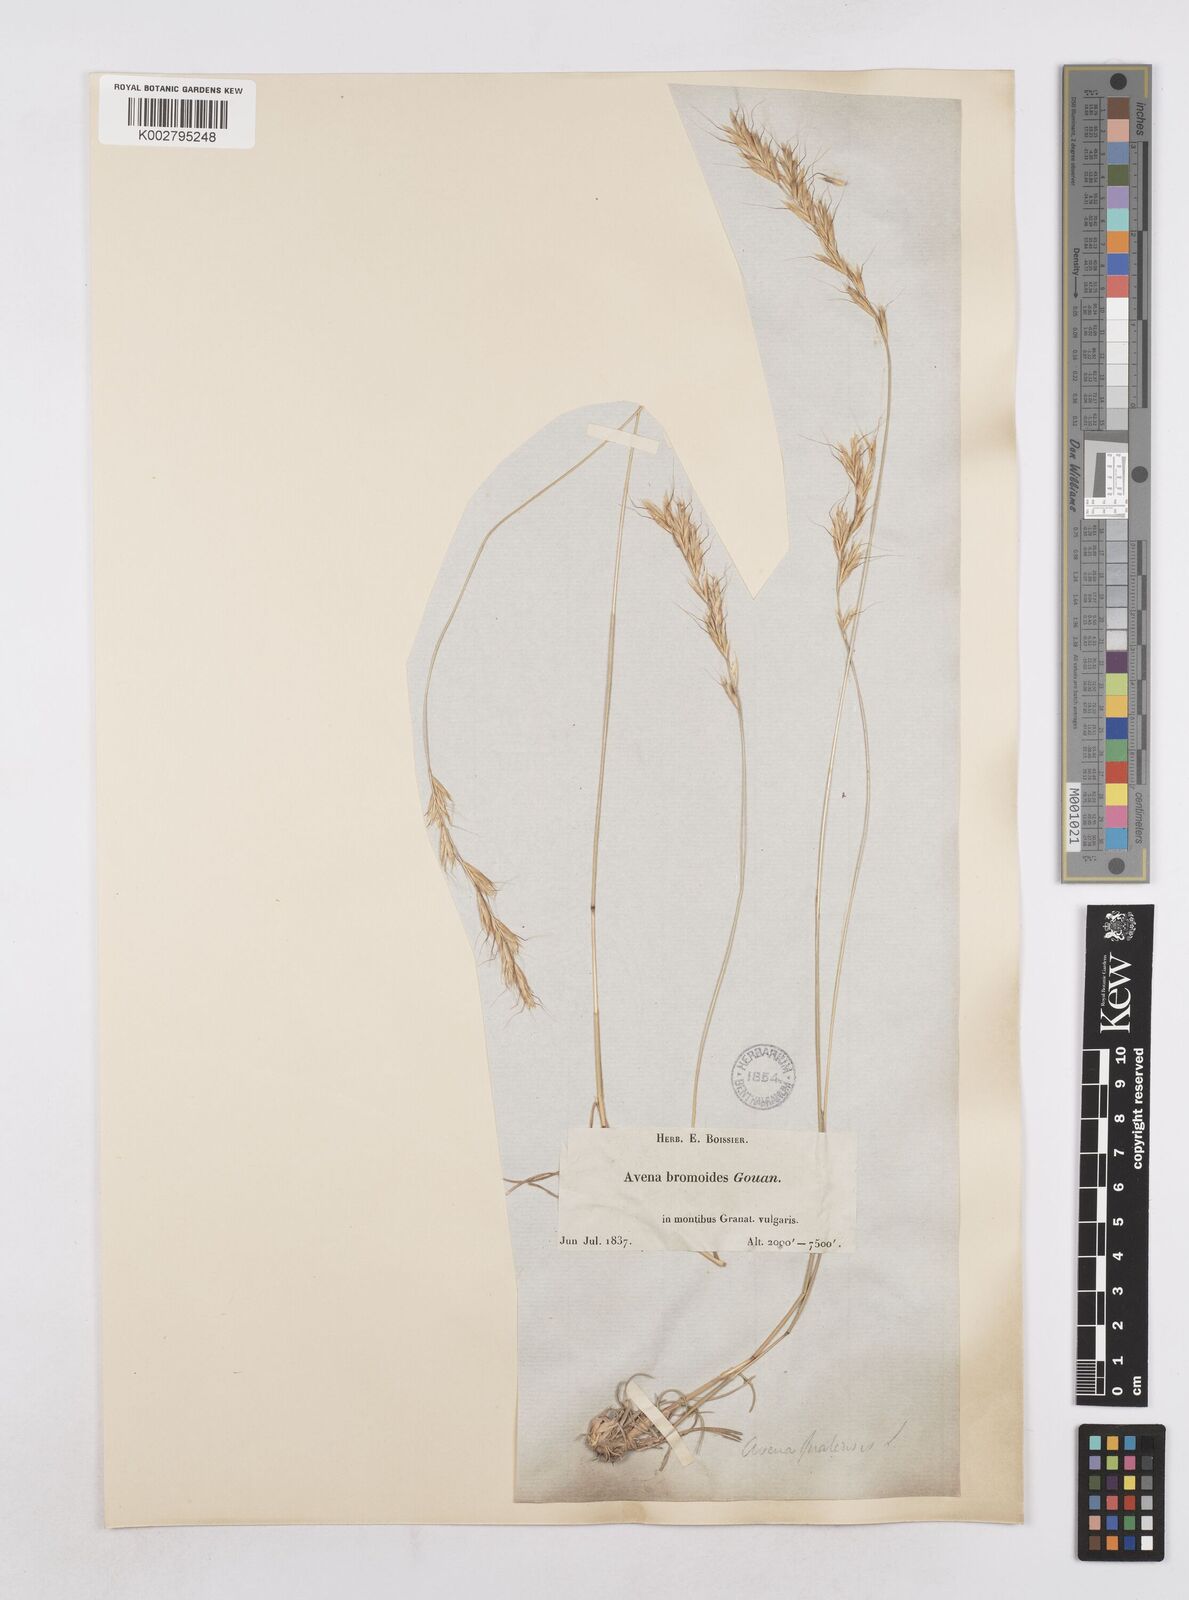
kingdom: Plantae
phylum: Tracheophyta
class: Liliopsida
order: Poales
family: Poaceae
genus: Helictochloa
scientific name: Helictochloa bromoides
